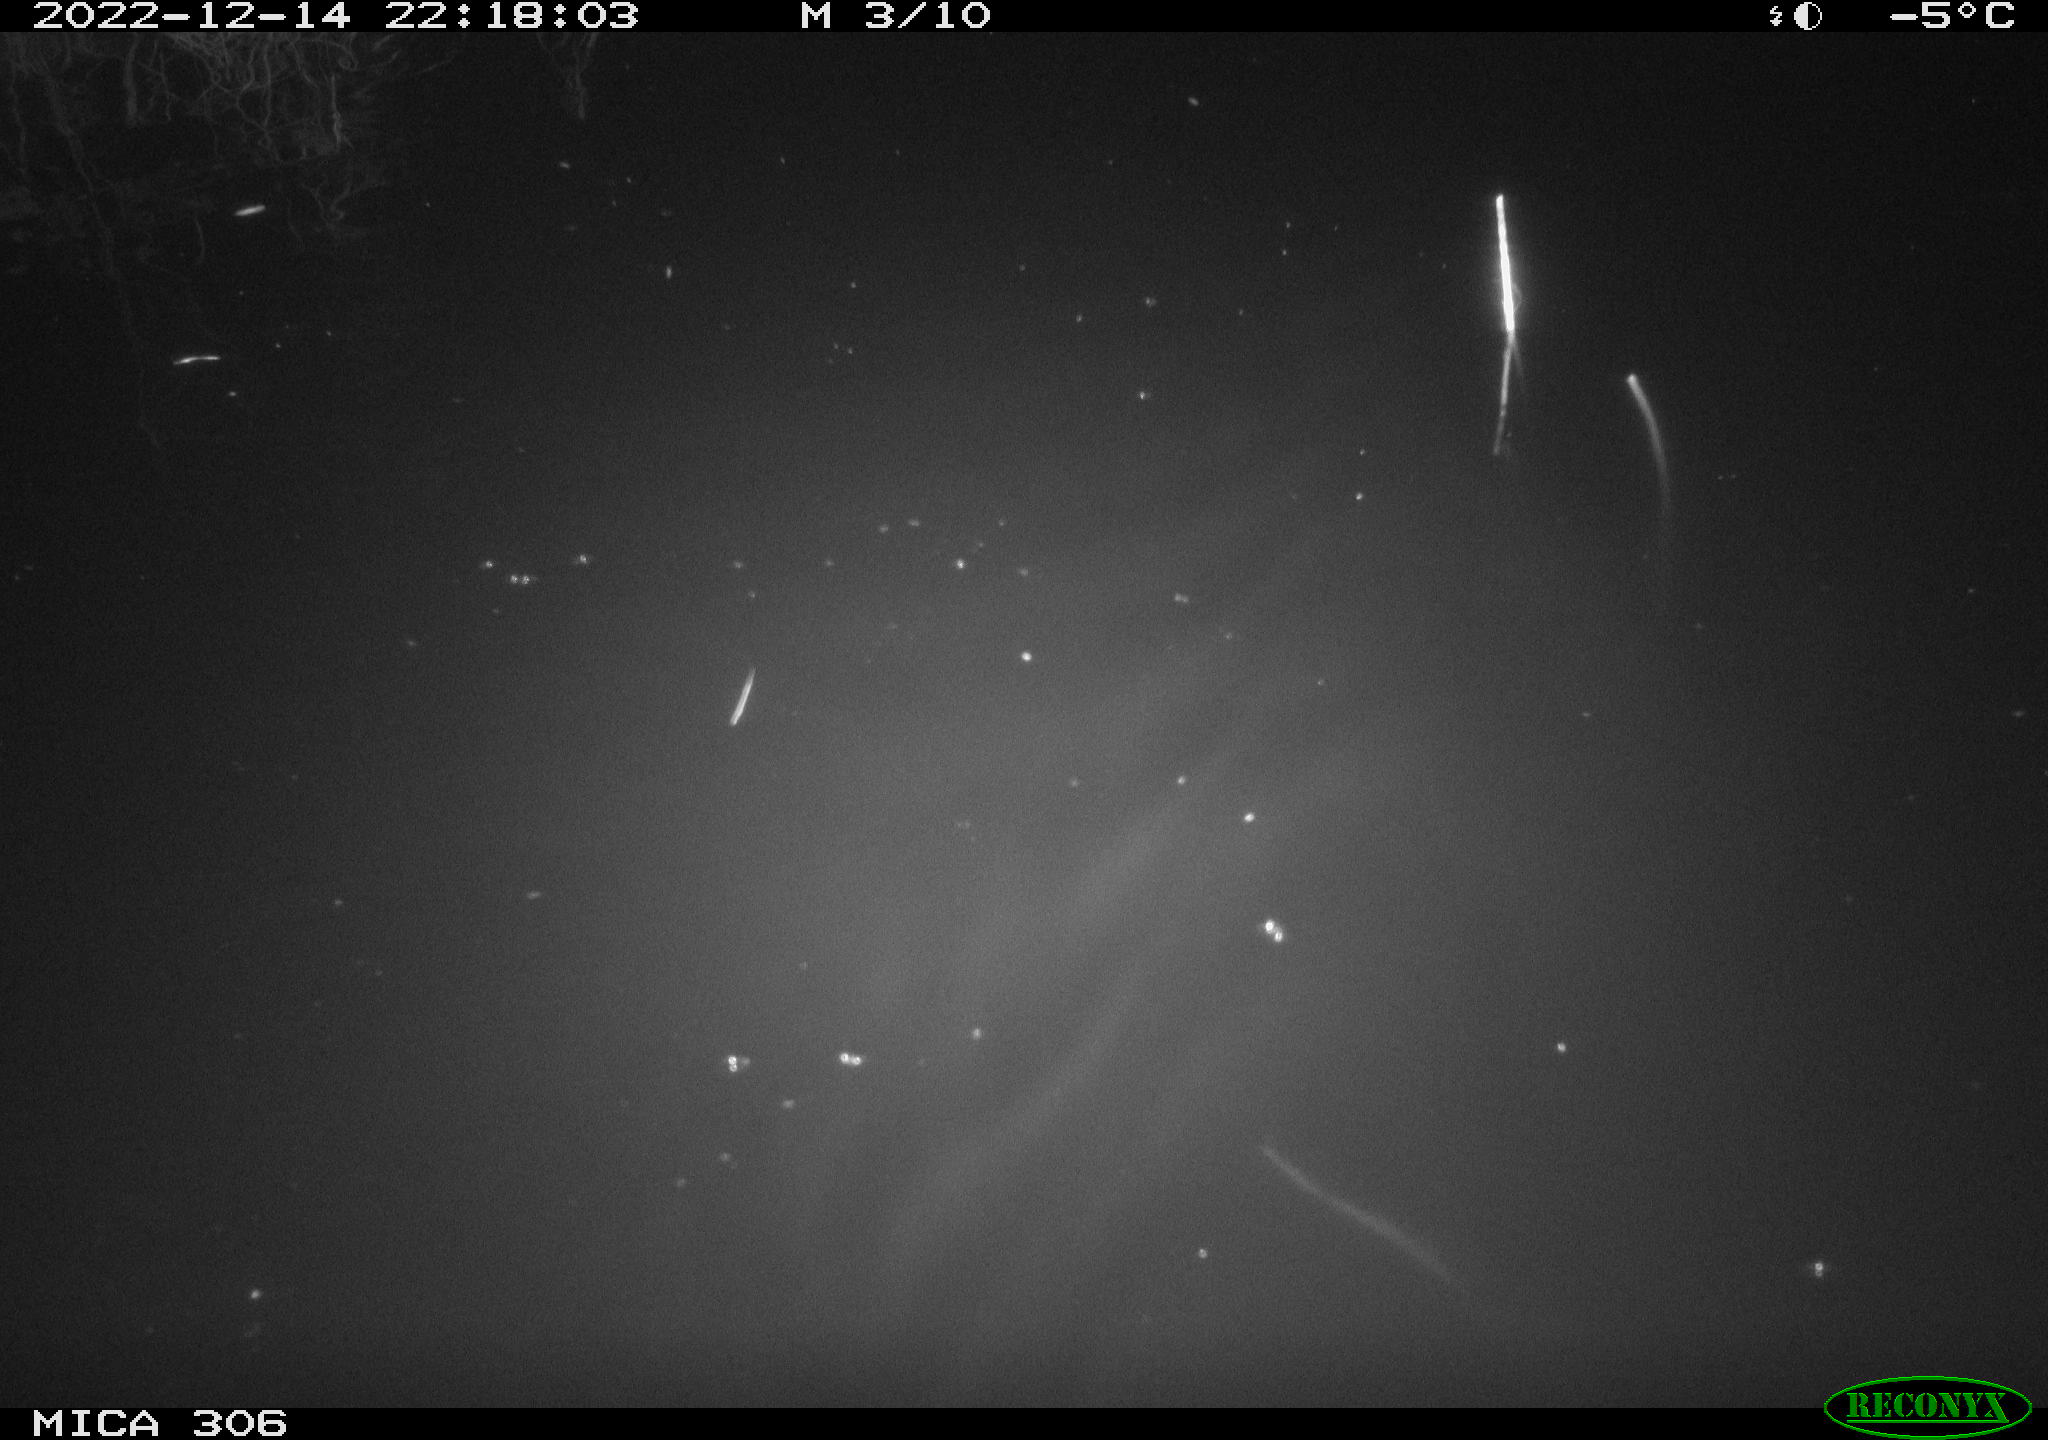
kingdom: Animalia
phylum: Chordata
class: Mammalia
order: Rodentia
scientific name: Rodentia
